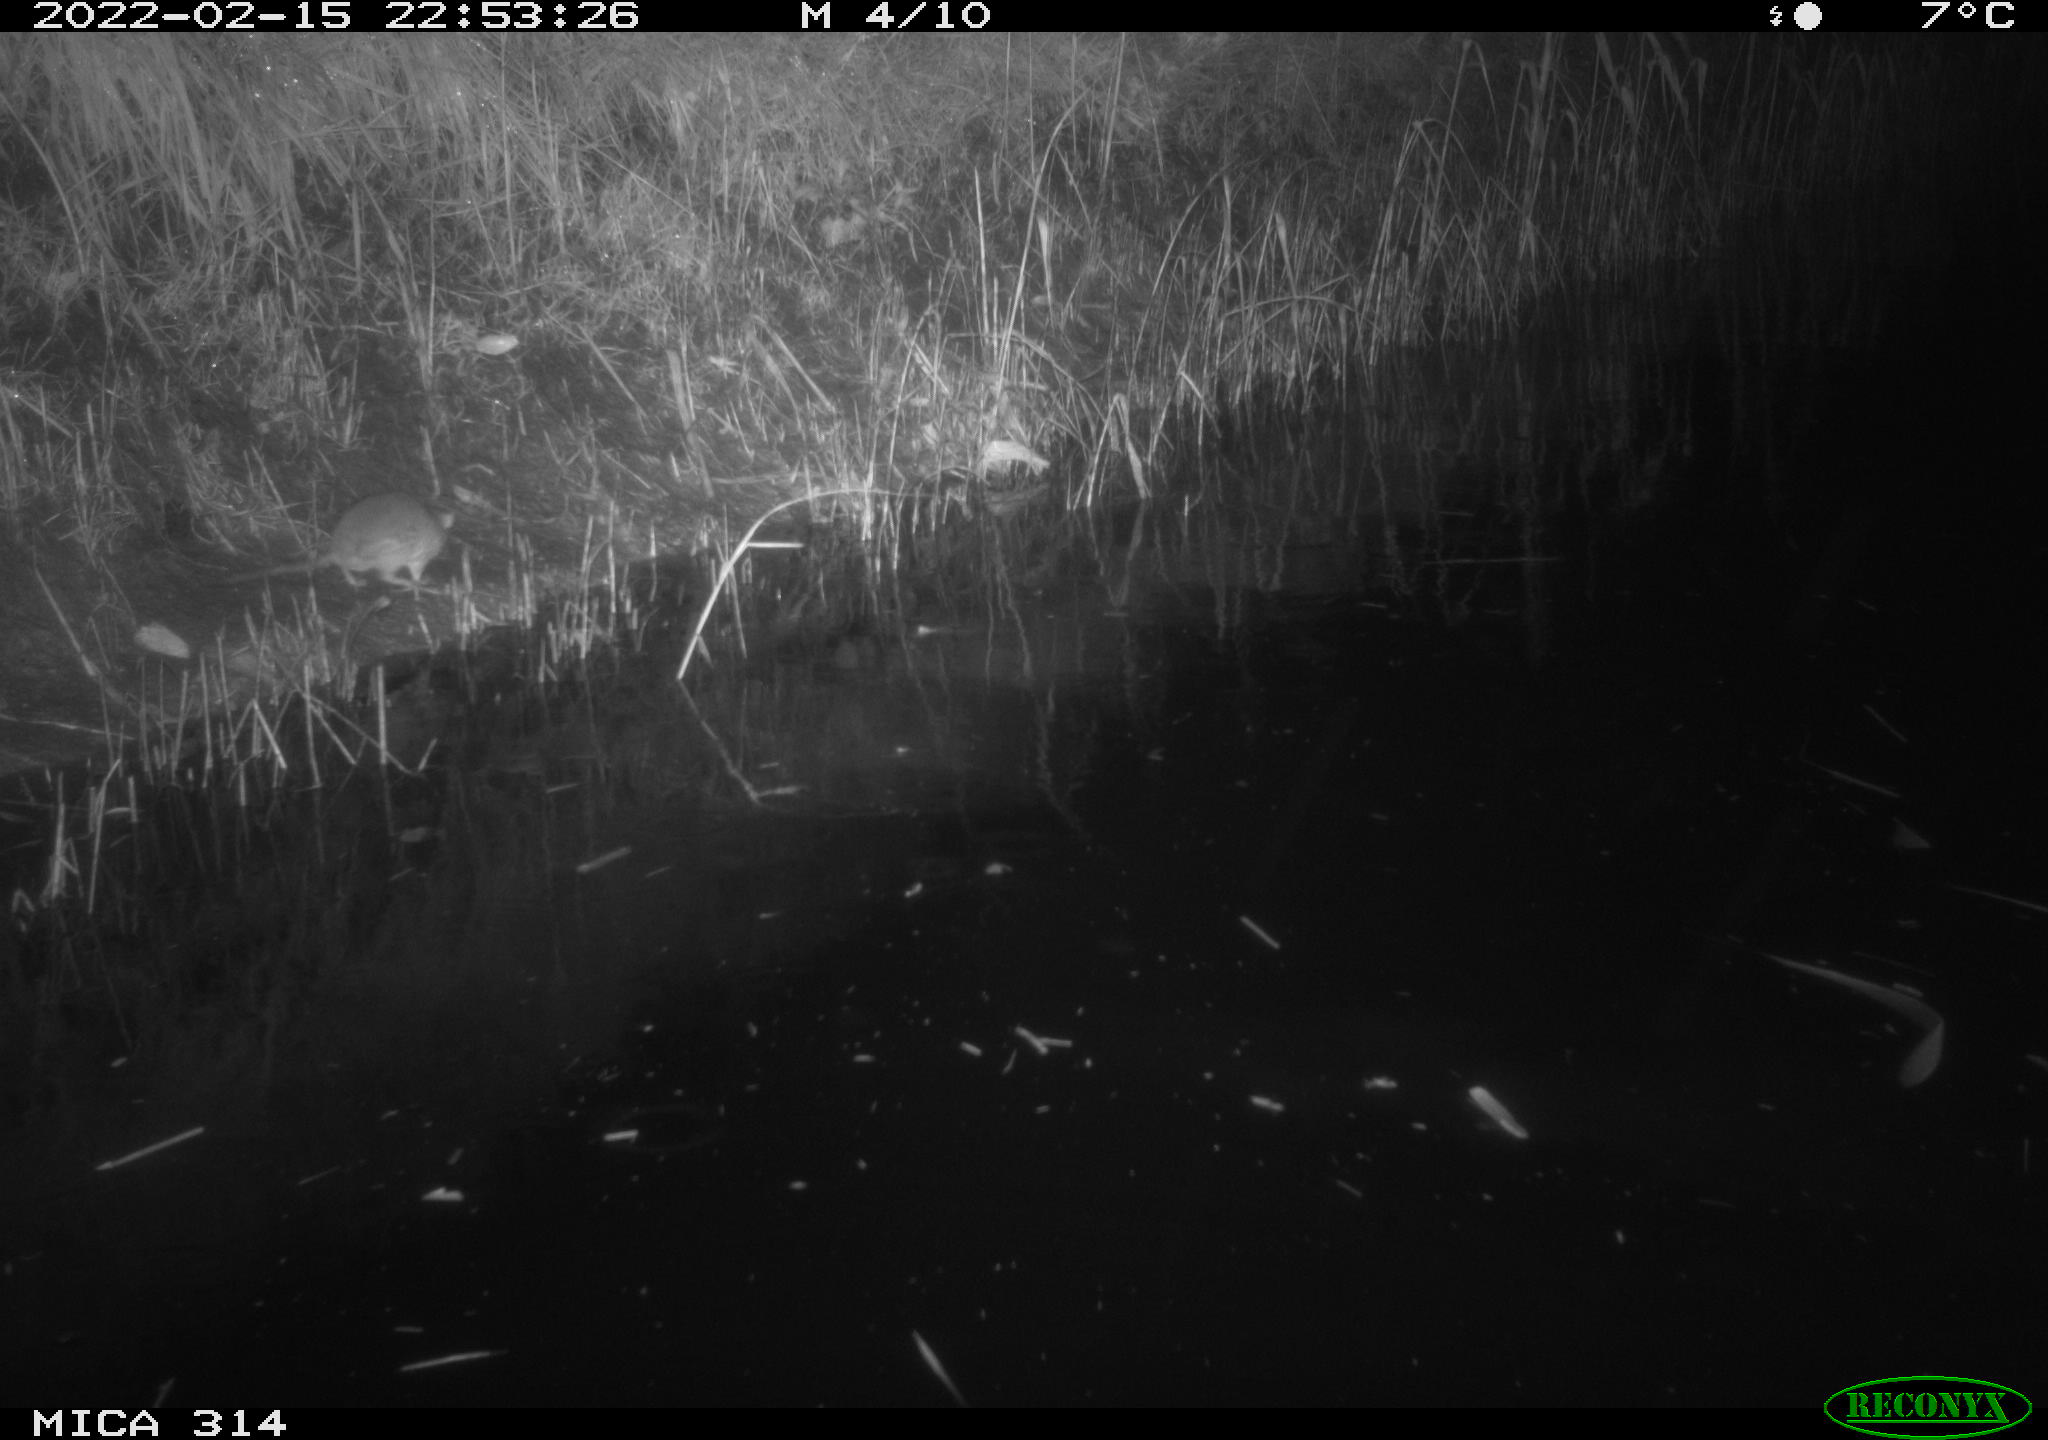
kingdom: Animalia
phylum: Chordata
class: Mammalia
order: Rodentia
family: Muridae
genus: Rattus
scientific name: Rattus norvegicus
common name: Brown rat
